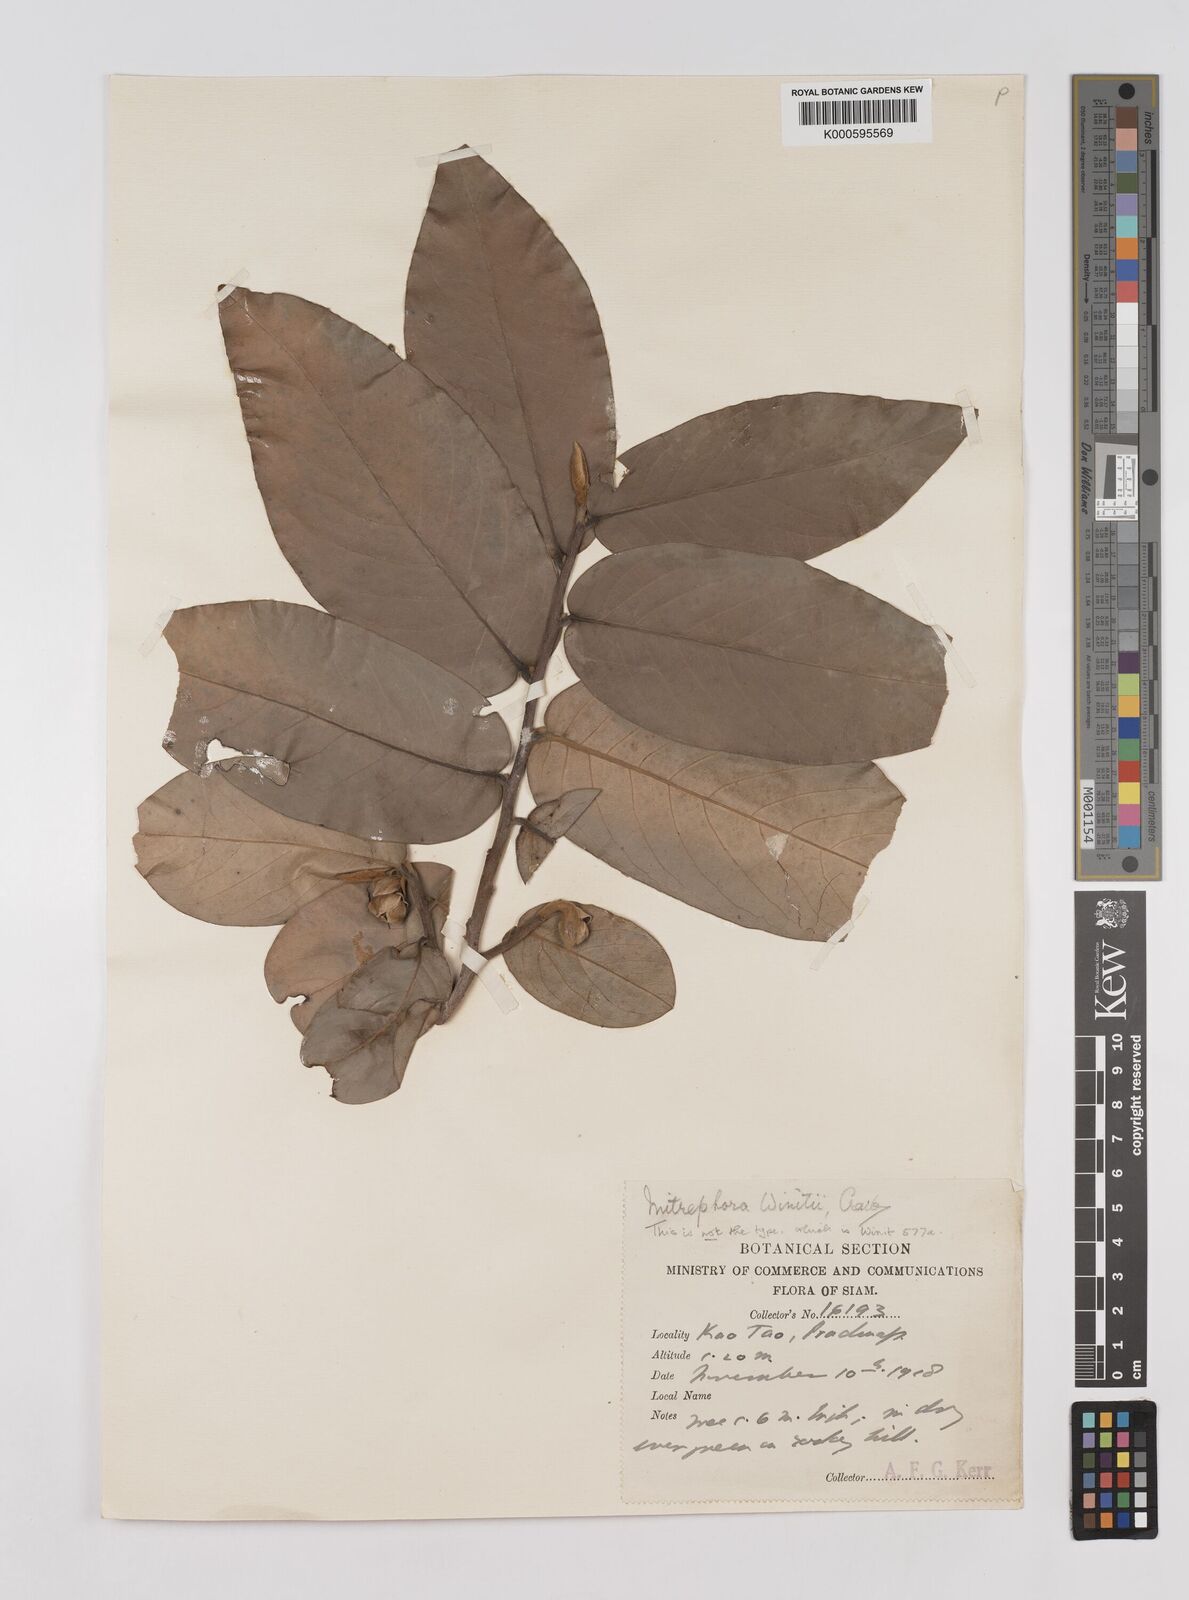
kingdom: Plantae
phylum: Tracheophyta
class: Magnoliopsida
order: Magnoliales
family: Annonaceae
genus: Mitrephora
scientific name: Mitrephora winitii
